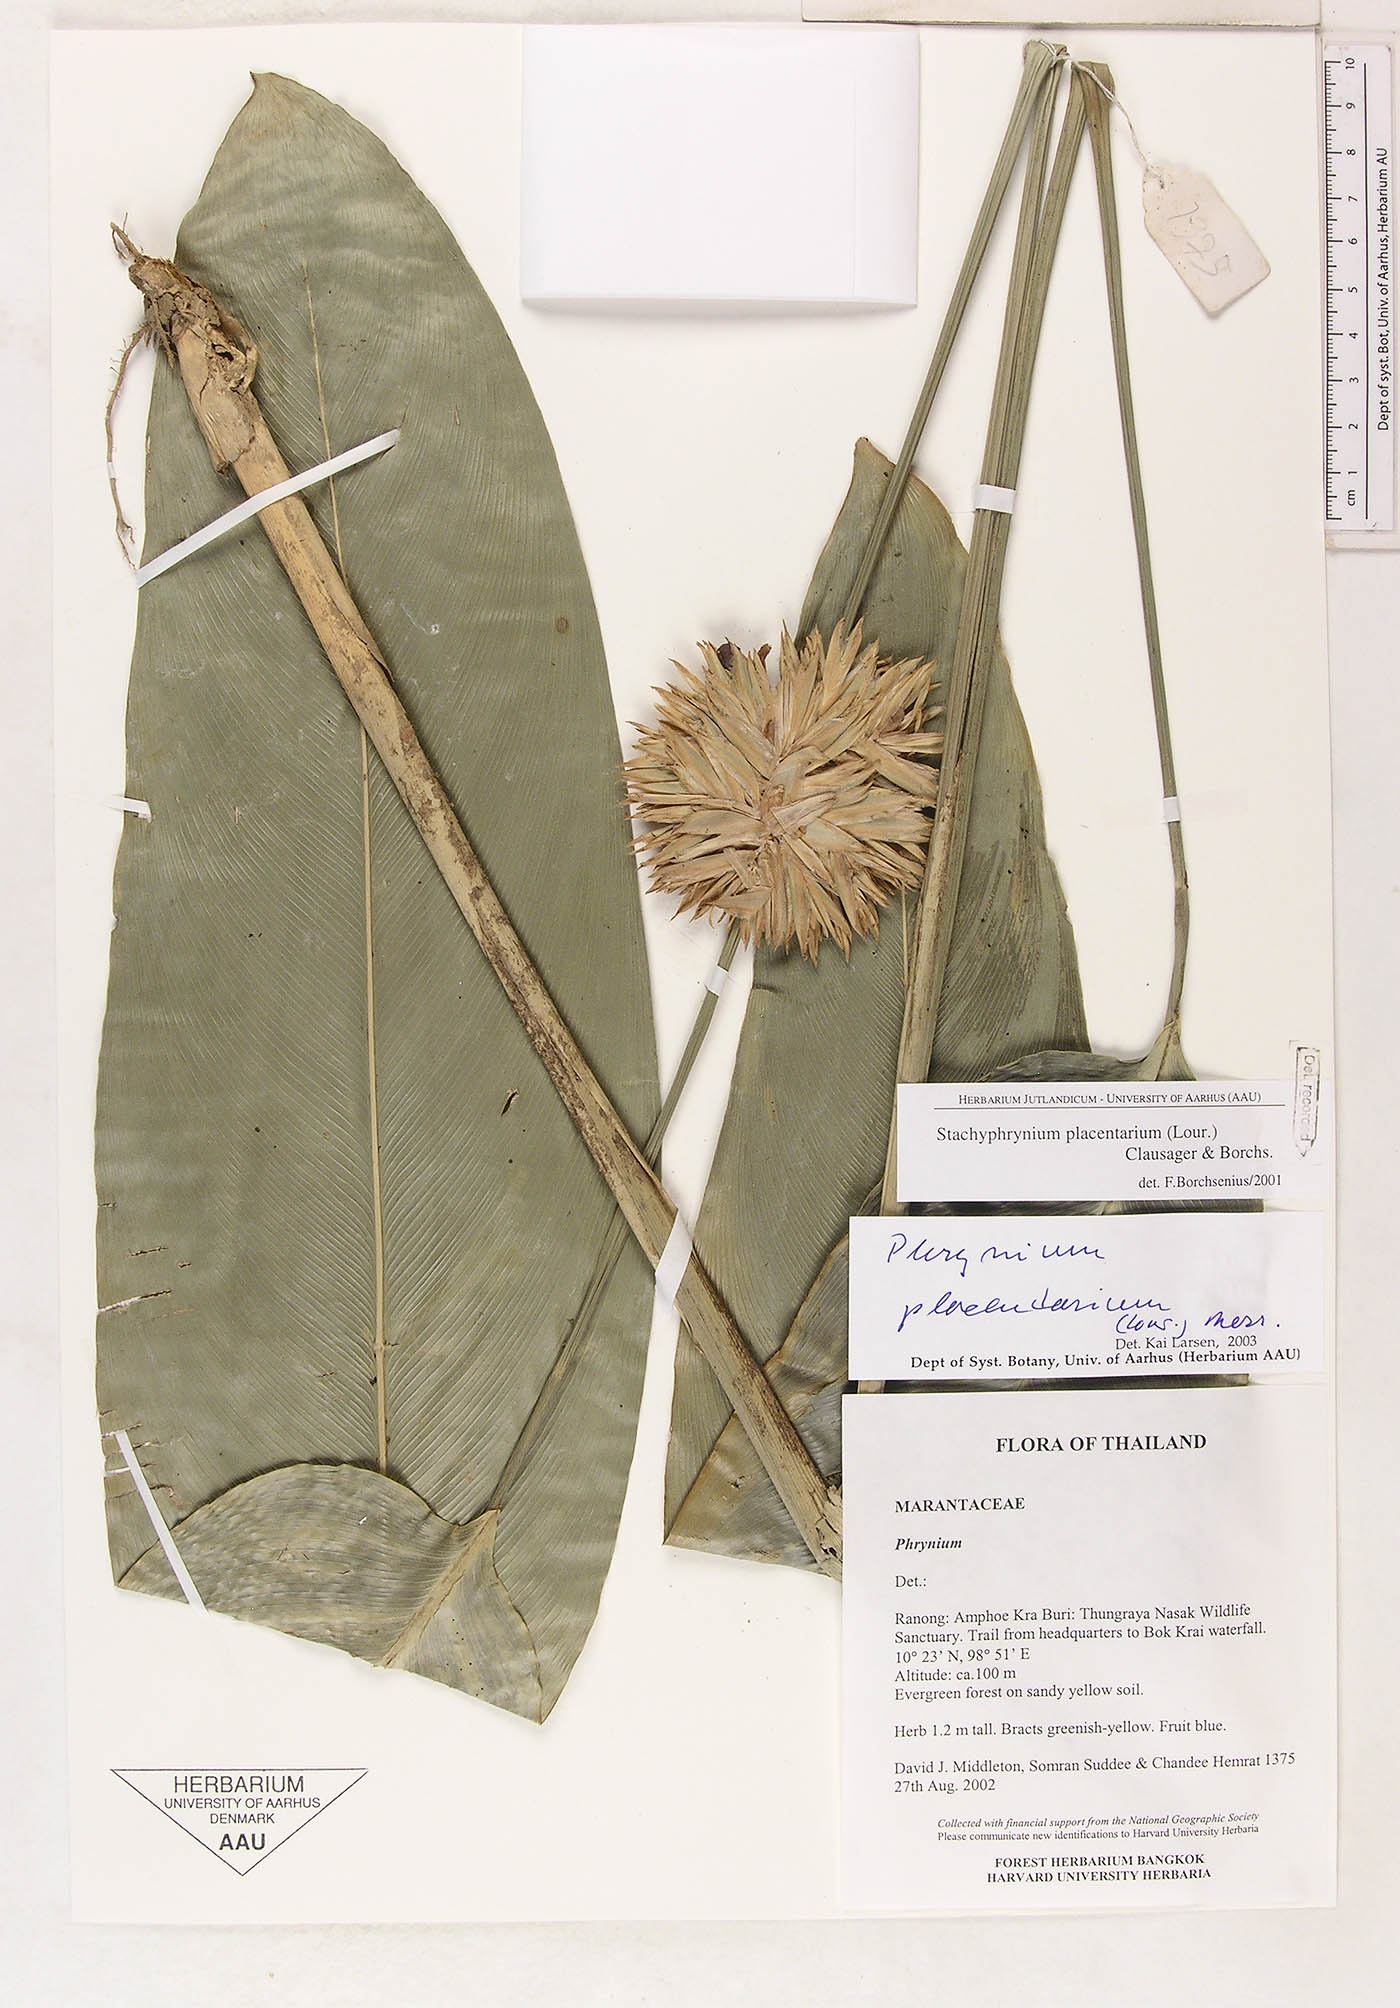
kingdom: Plantae
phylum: Tracheophyta
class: Liliopsida
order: Zingiberales
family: Marantaceae
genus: Stachyphrynium
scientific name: Stachyphrynium placentarium
